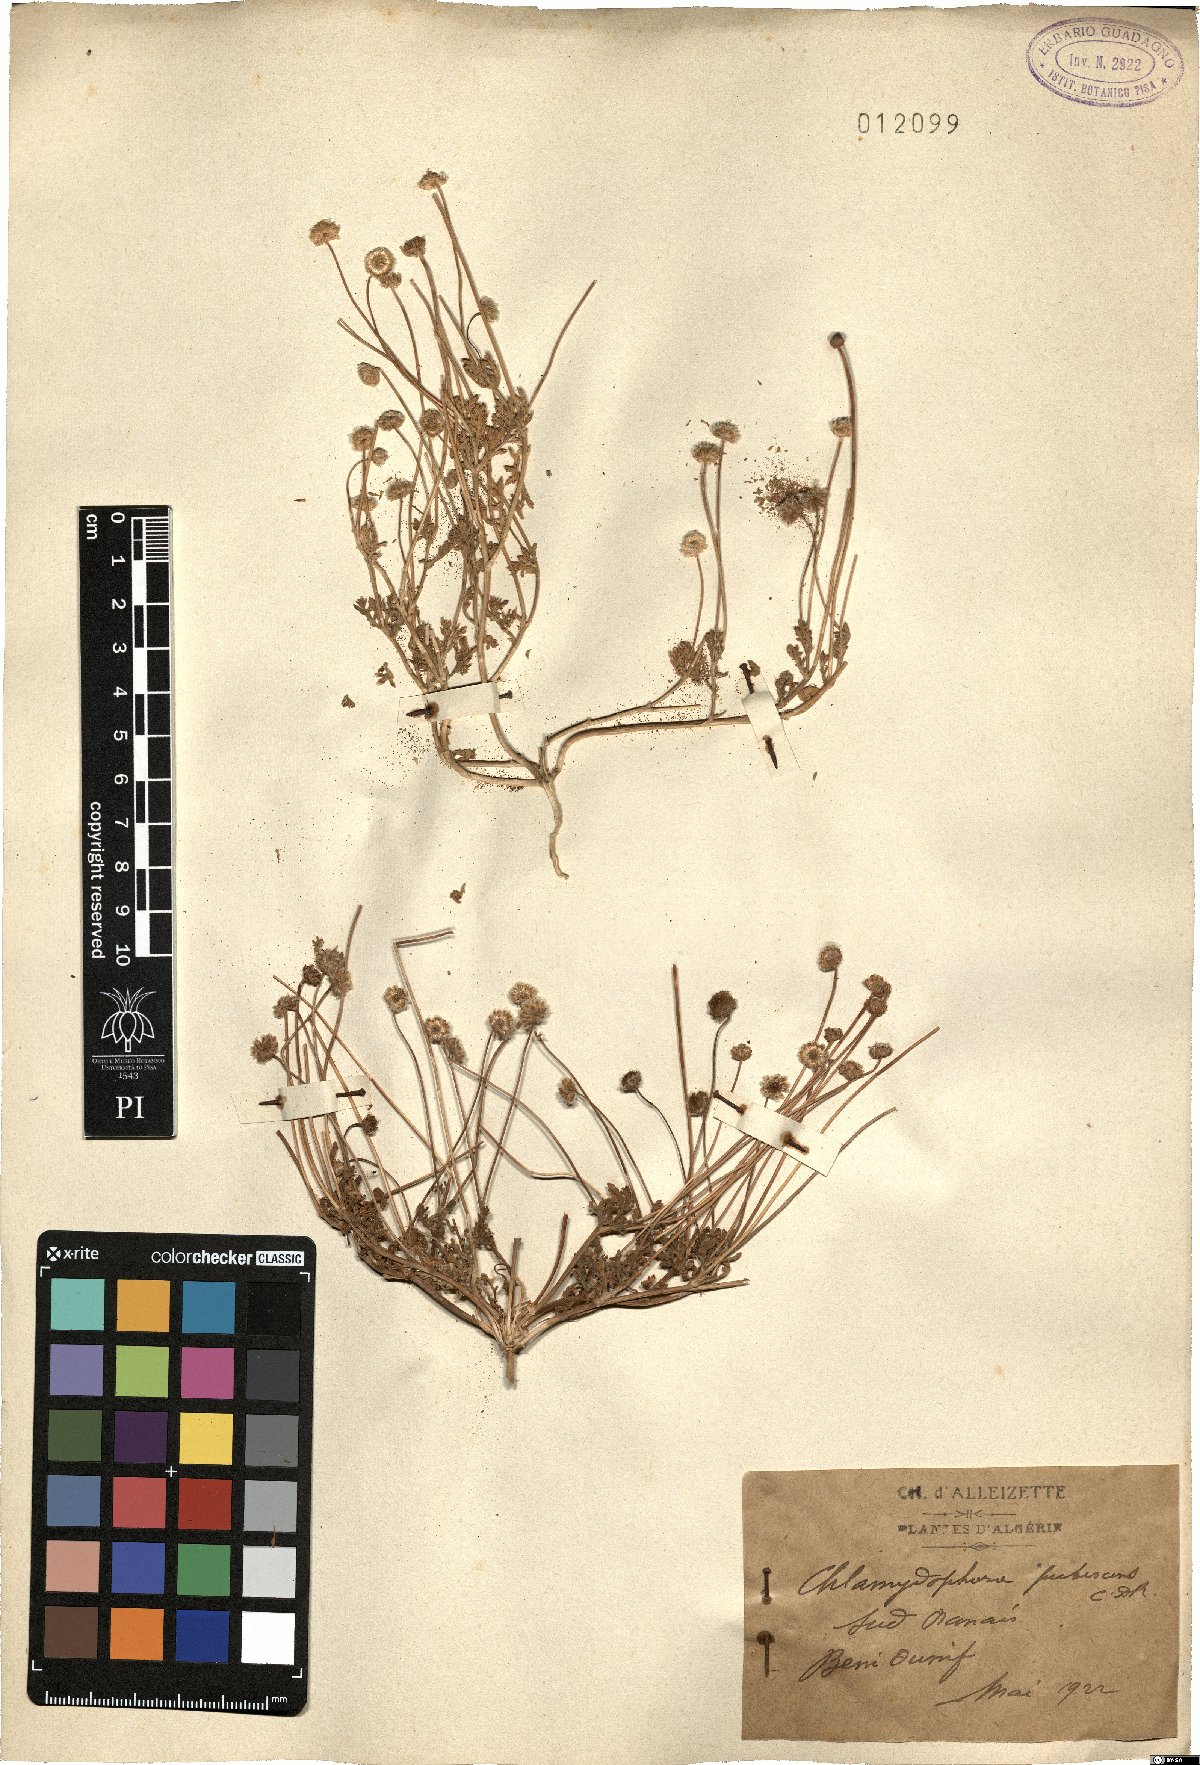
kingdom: Plantae
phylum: Tracheophyta
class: Magnoliopsida
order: Asterales
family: Asteraceae
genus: Otoglyphis
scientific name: Otoglyphis pubescens
